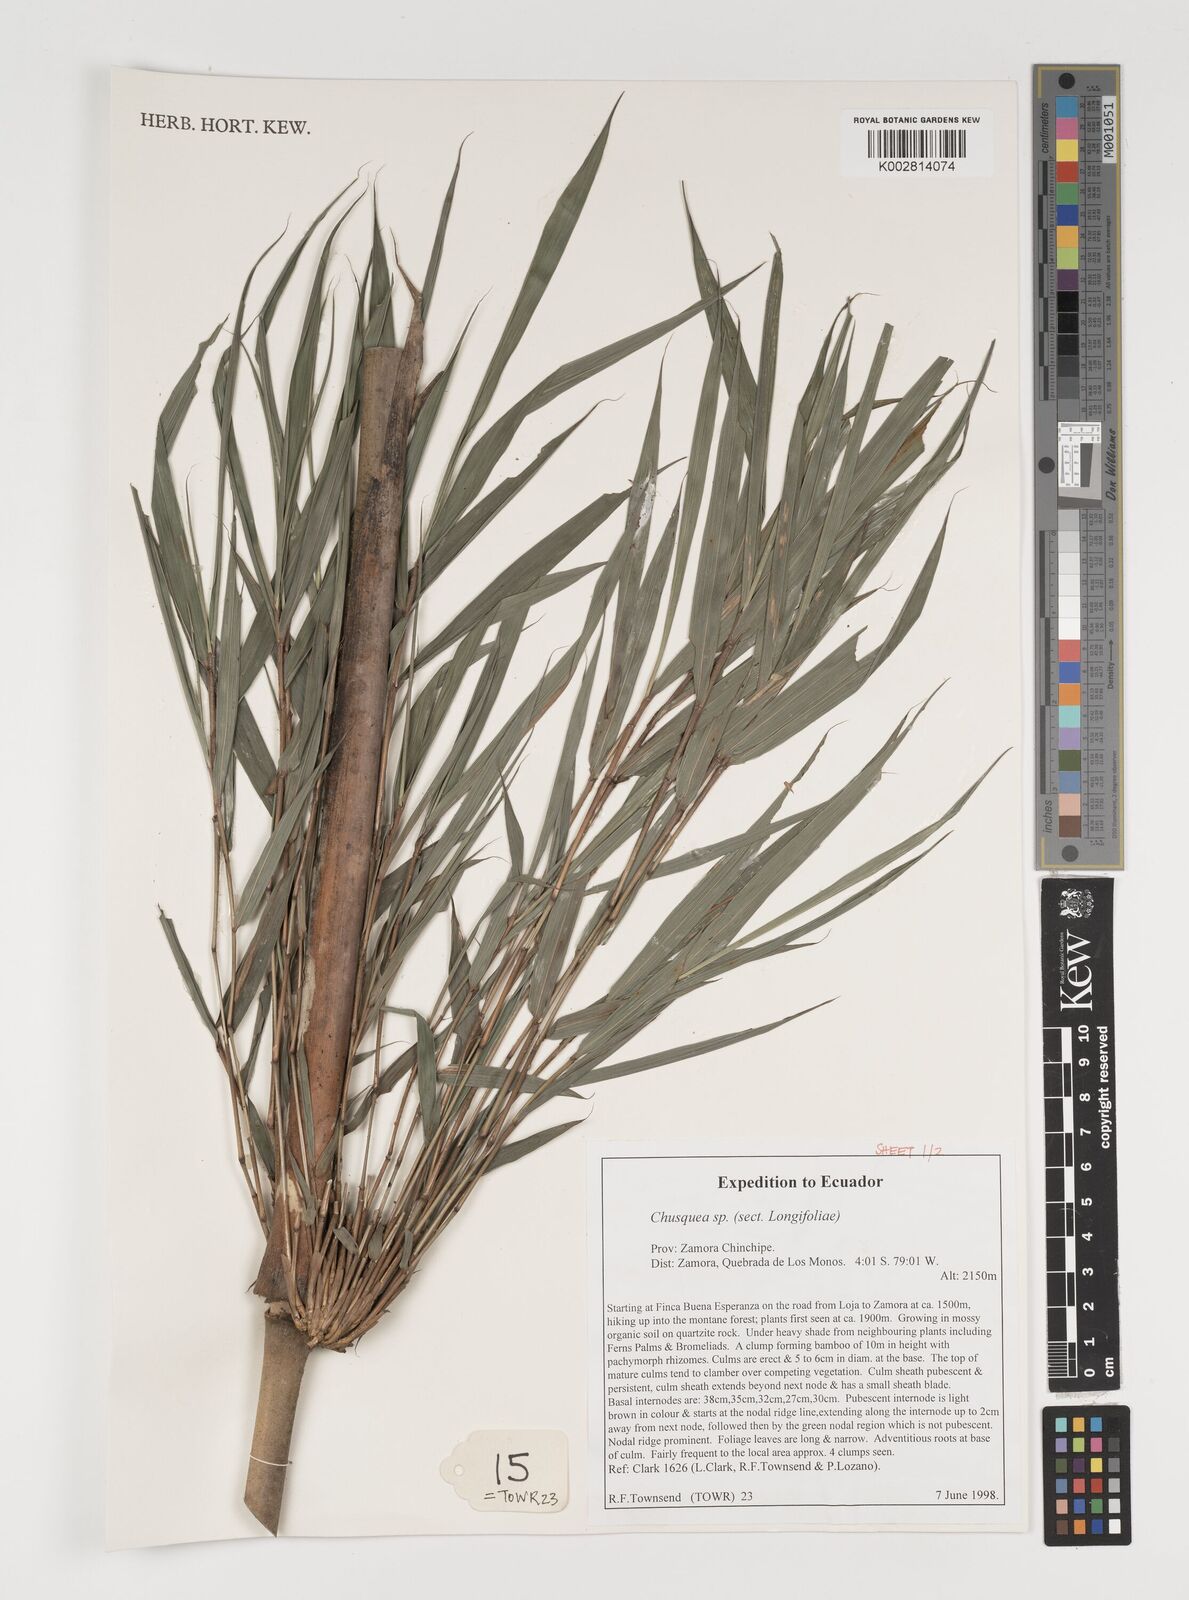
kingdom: Plantae
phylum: Tracheophyta
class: Liliopsida
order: Poales
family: Poaceae
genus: Chusquea
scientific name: Chusquea
